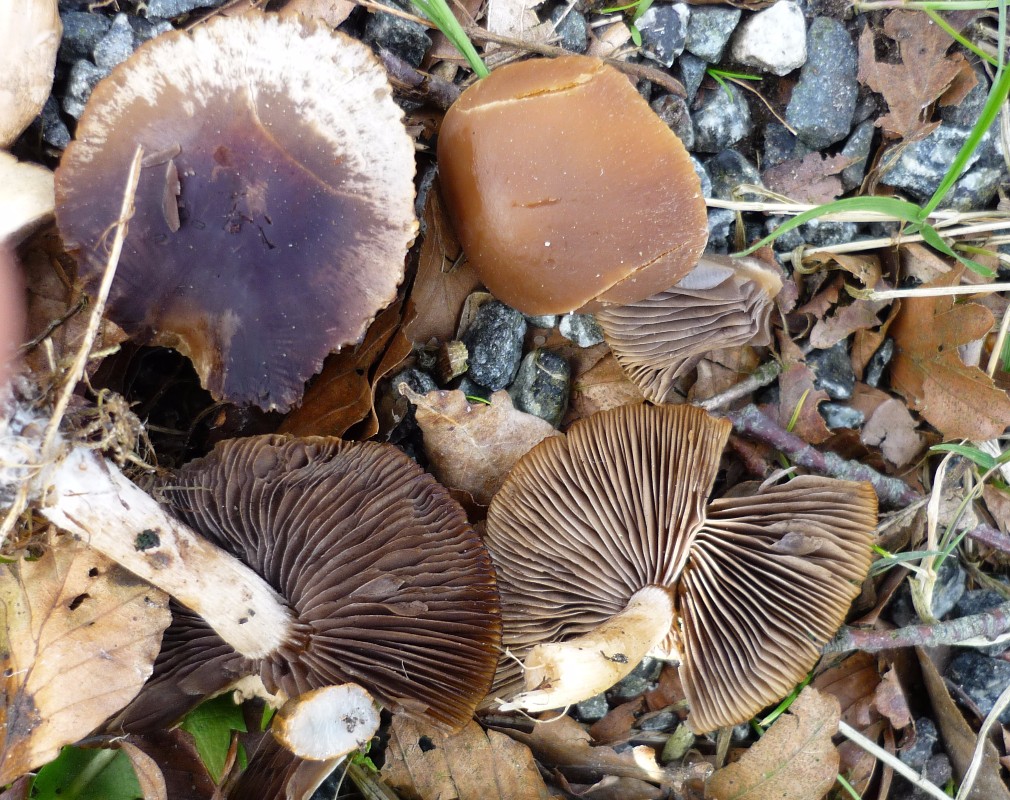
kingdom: Fungi
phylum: Basidiomycota
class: Agaricomycetes
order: Agaricales
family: Psathyrellaceae
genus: Psathyrella
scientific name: Psathyrella spadiceogrisea
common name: gråbrun mørkhat
